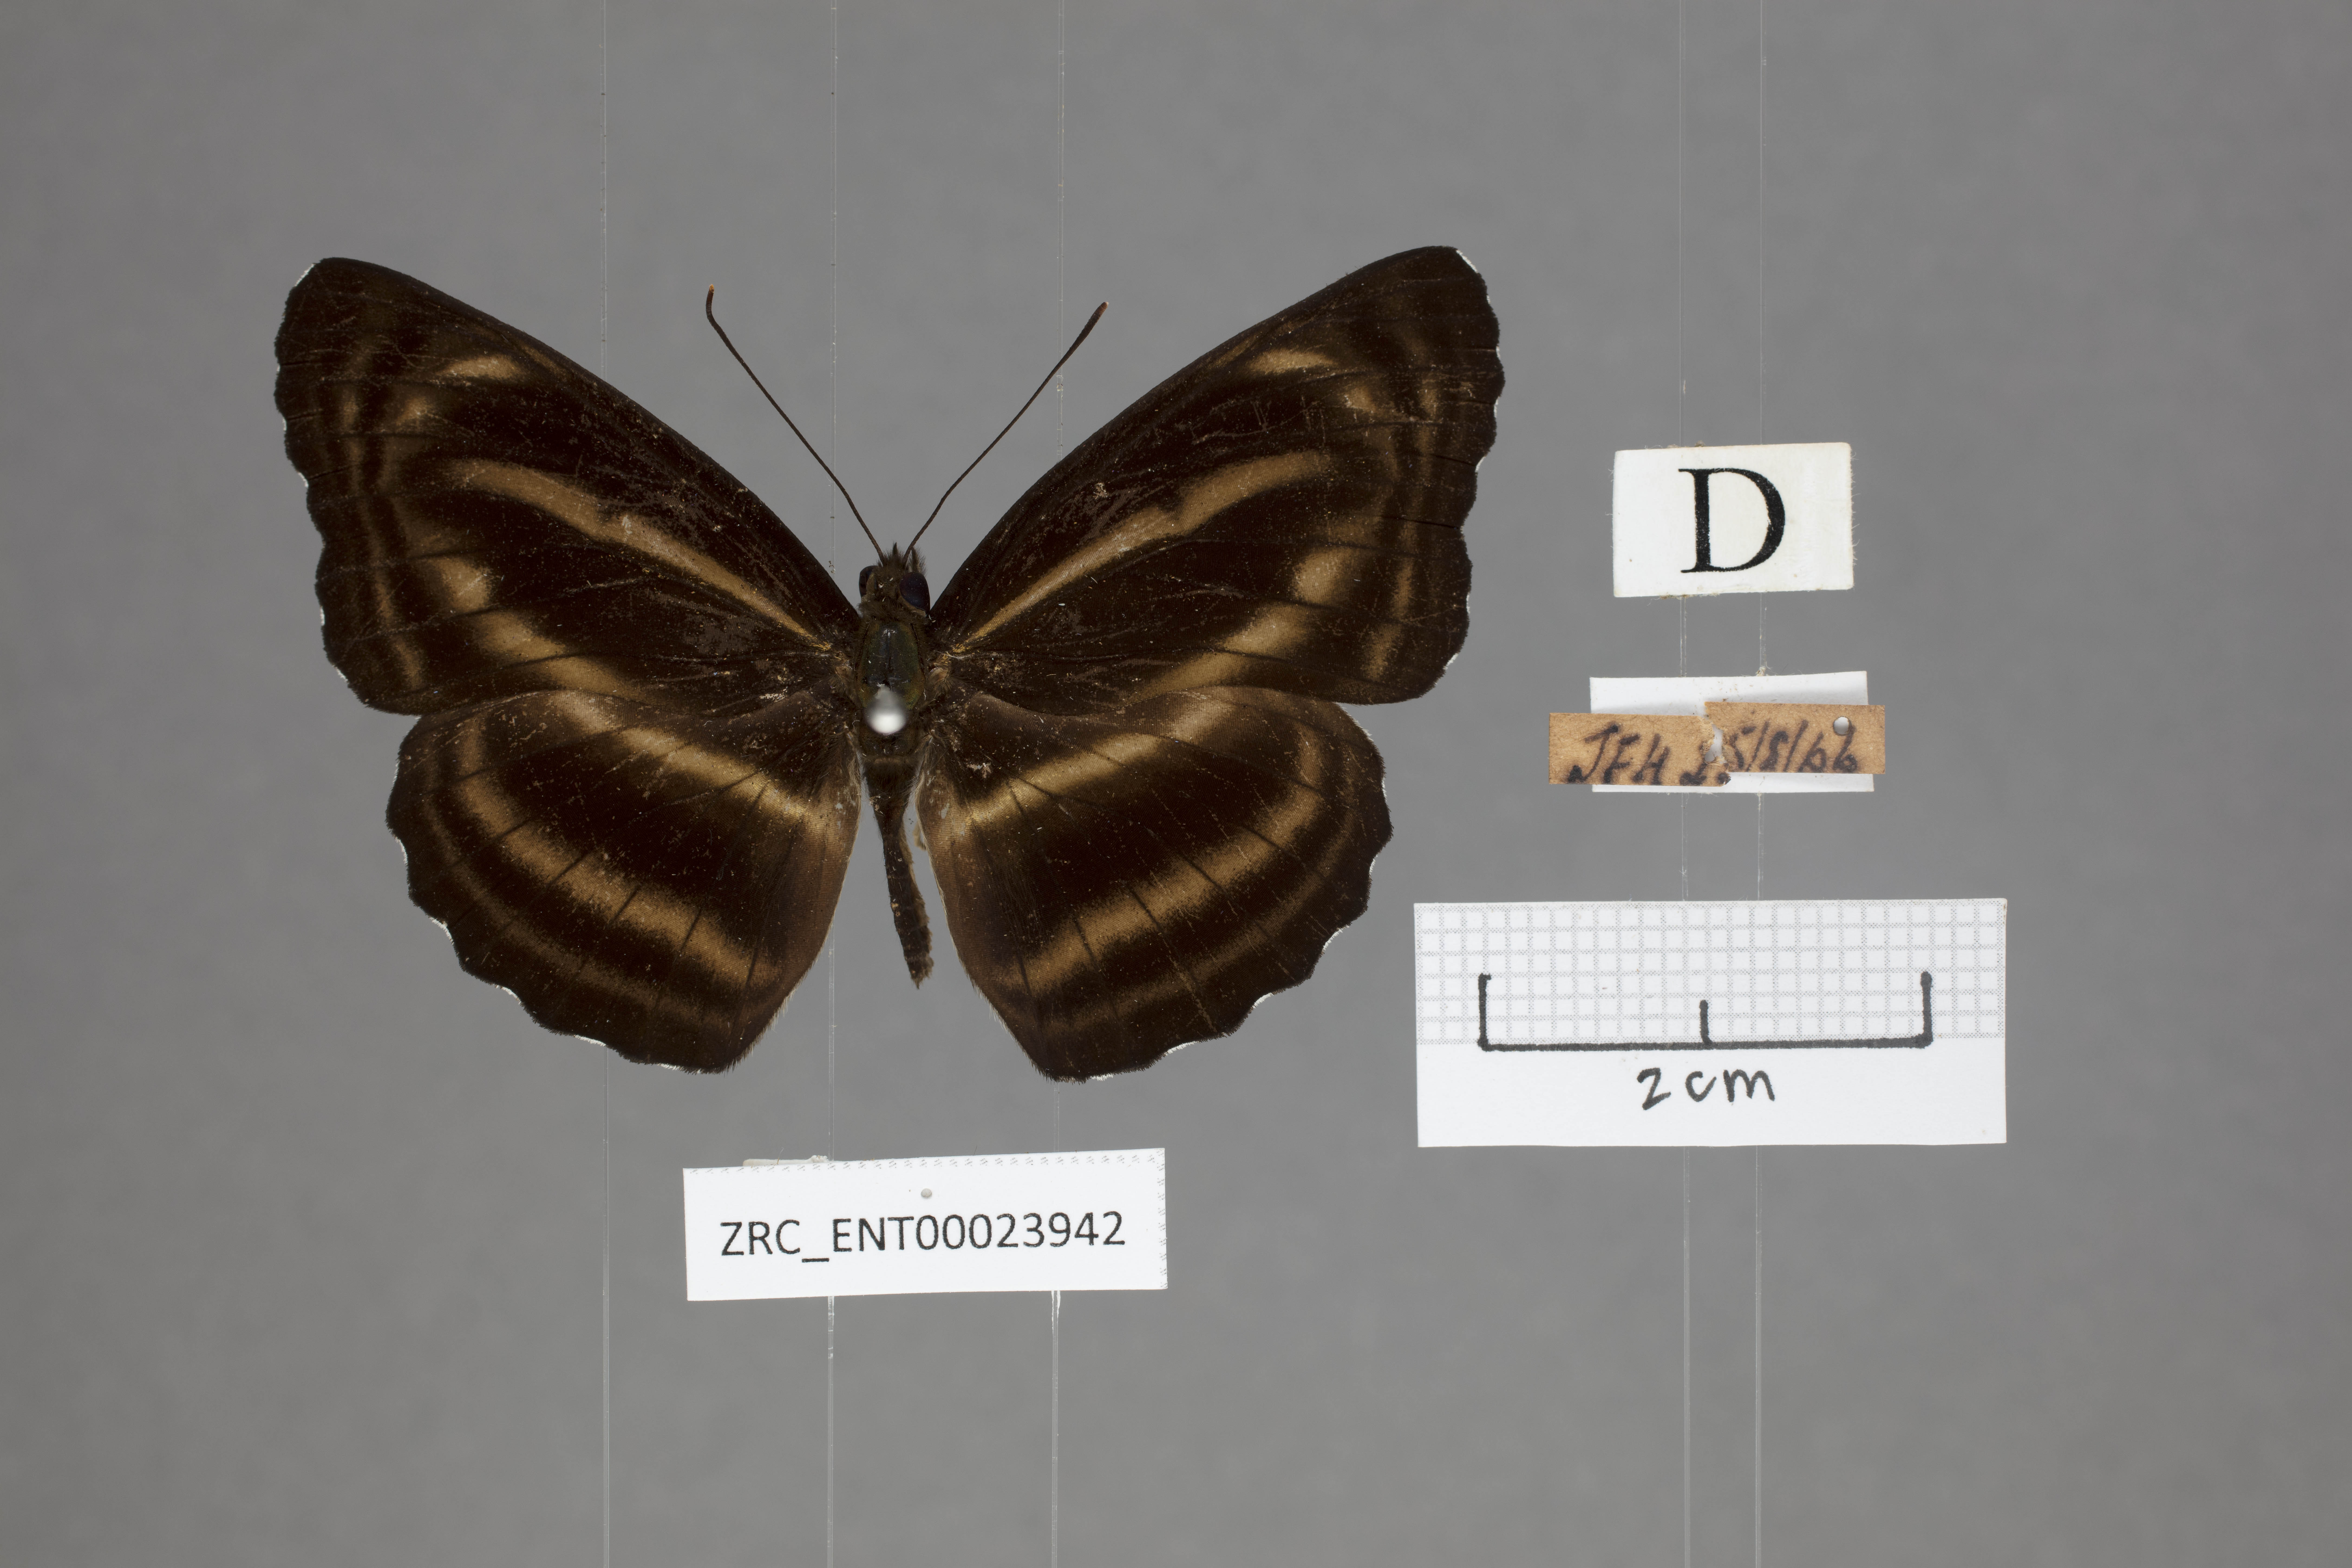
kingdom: Animalia
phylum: Arthropoda
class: Insecta
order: Lepidoptera
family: Nymphalidae
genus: Neptis
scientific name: Neptis anjana
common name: Rich sailer
